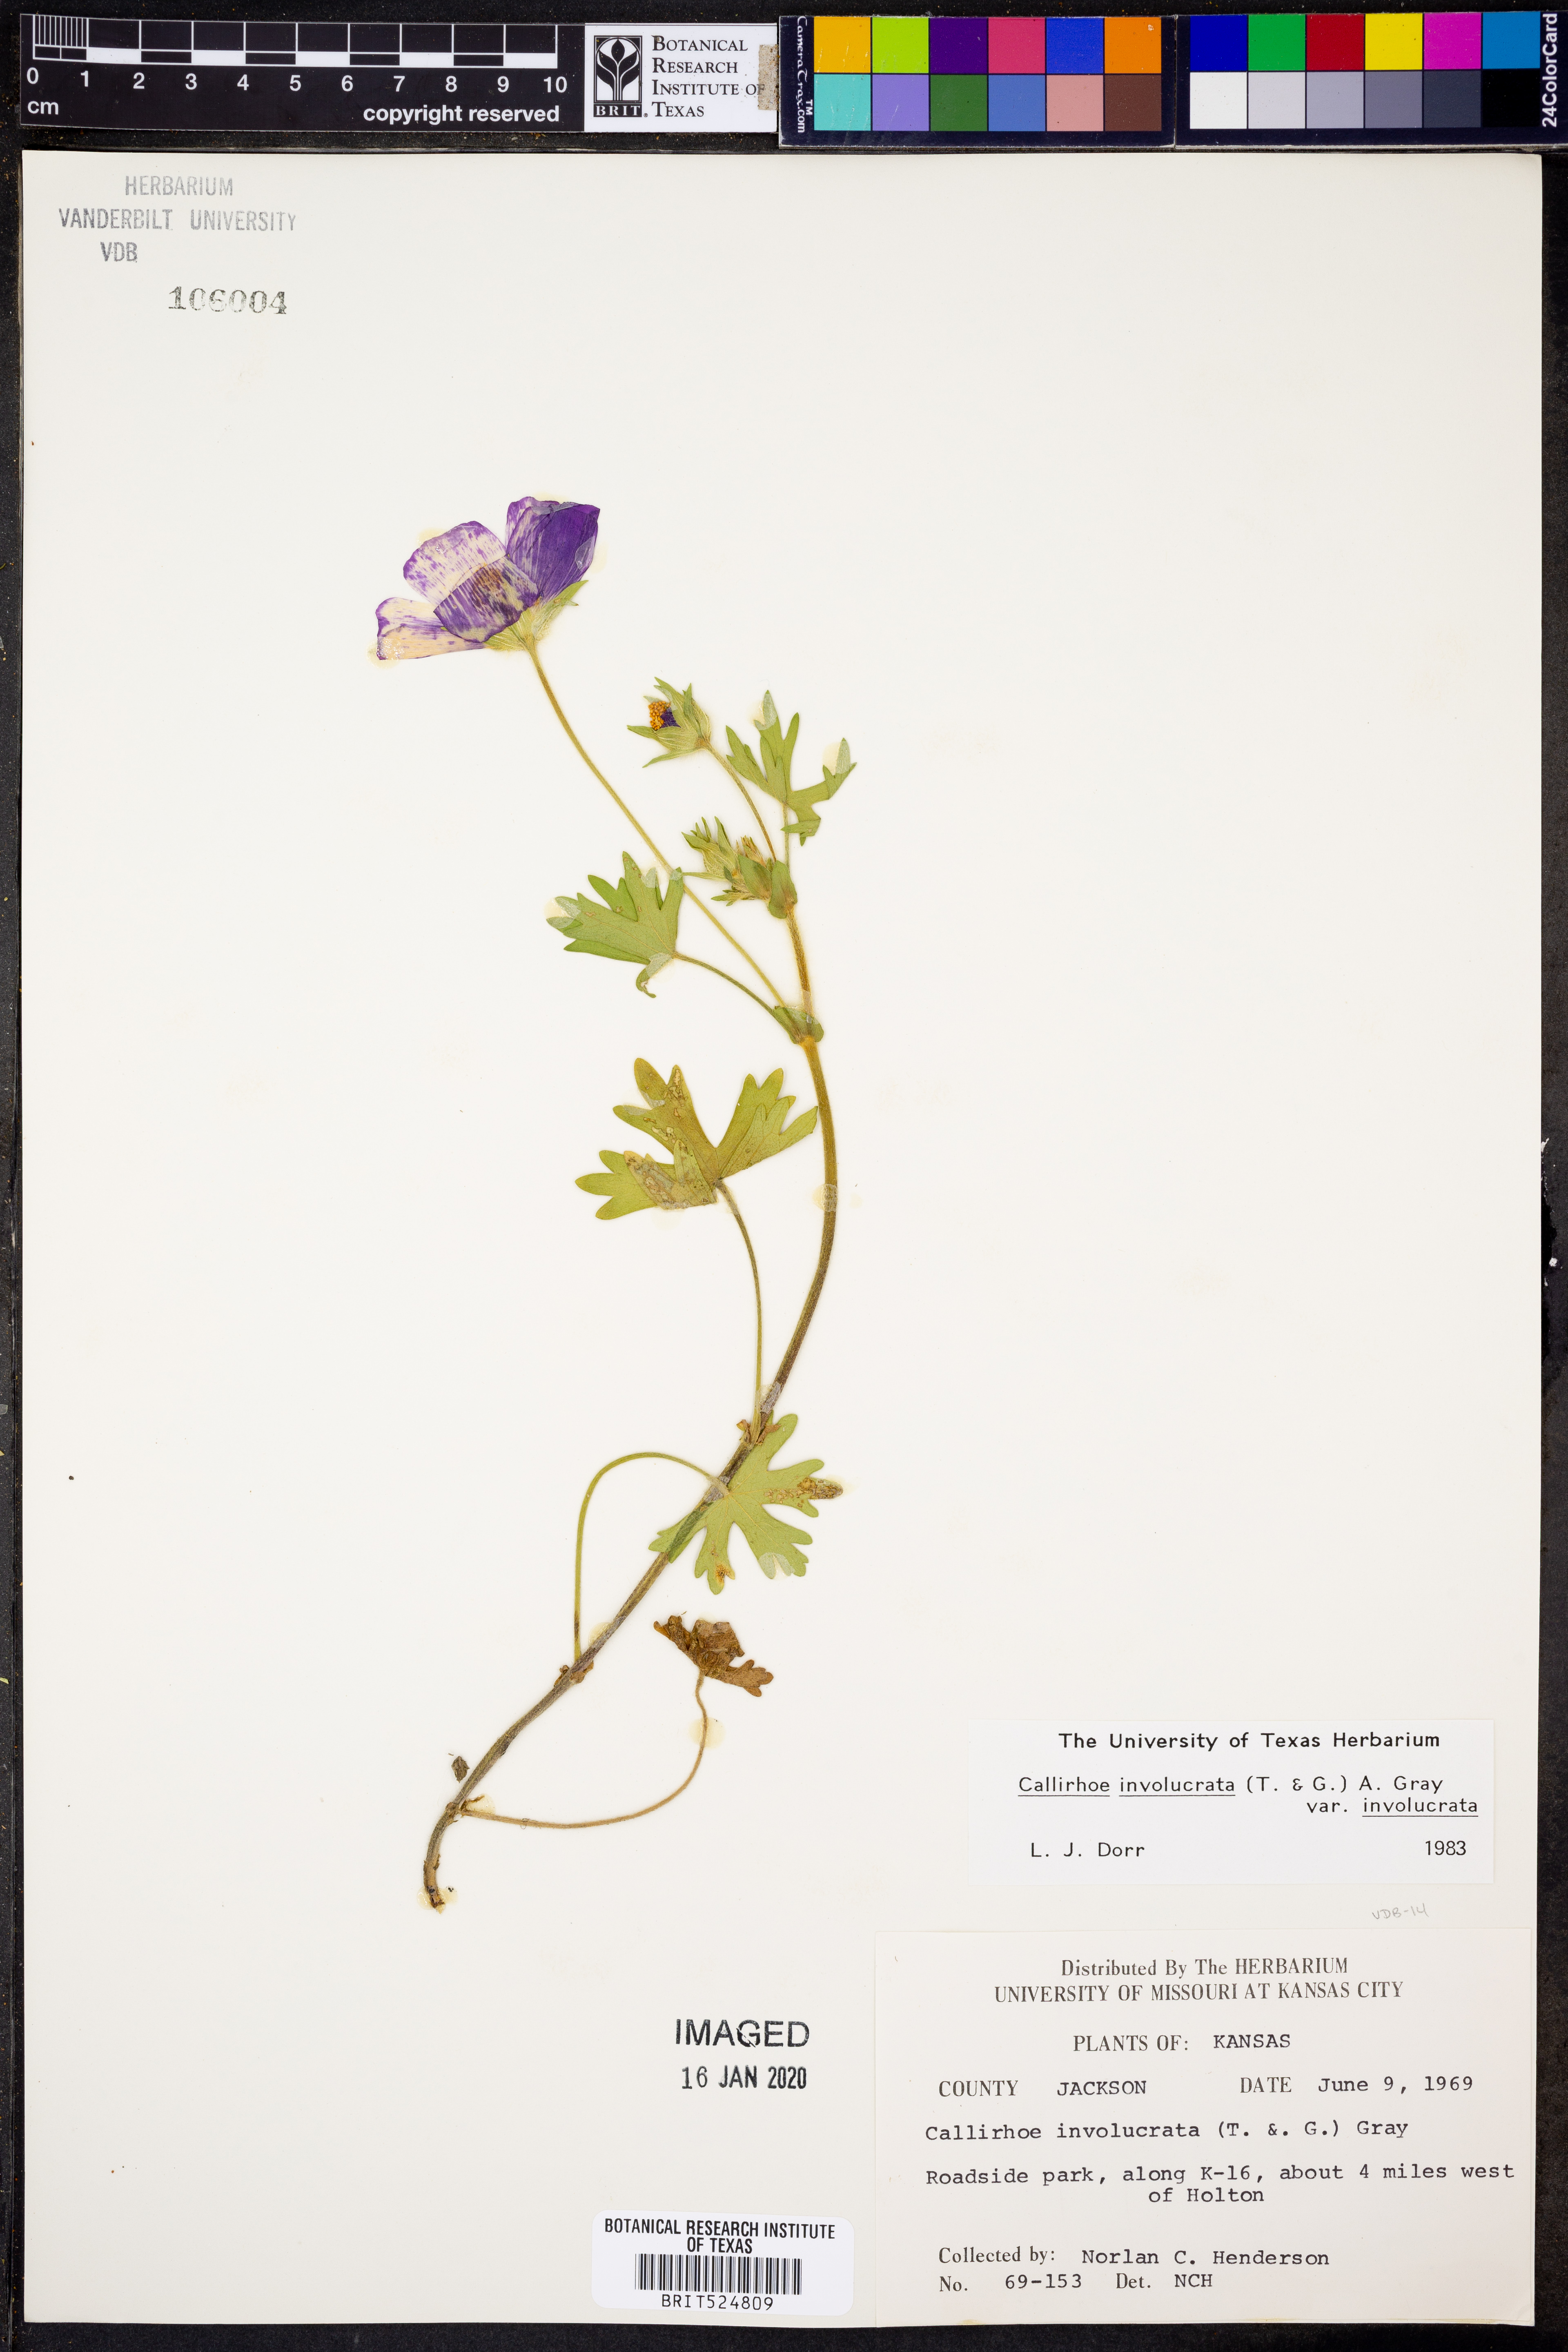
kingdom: Plantae
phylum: Tracheophyta
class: Magnoliopsida
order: Malvales
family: Malvaceae
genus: Callirhoe
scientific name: Callirhoe involucrata
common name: Purple poppy-mallow
